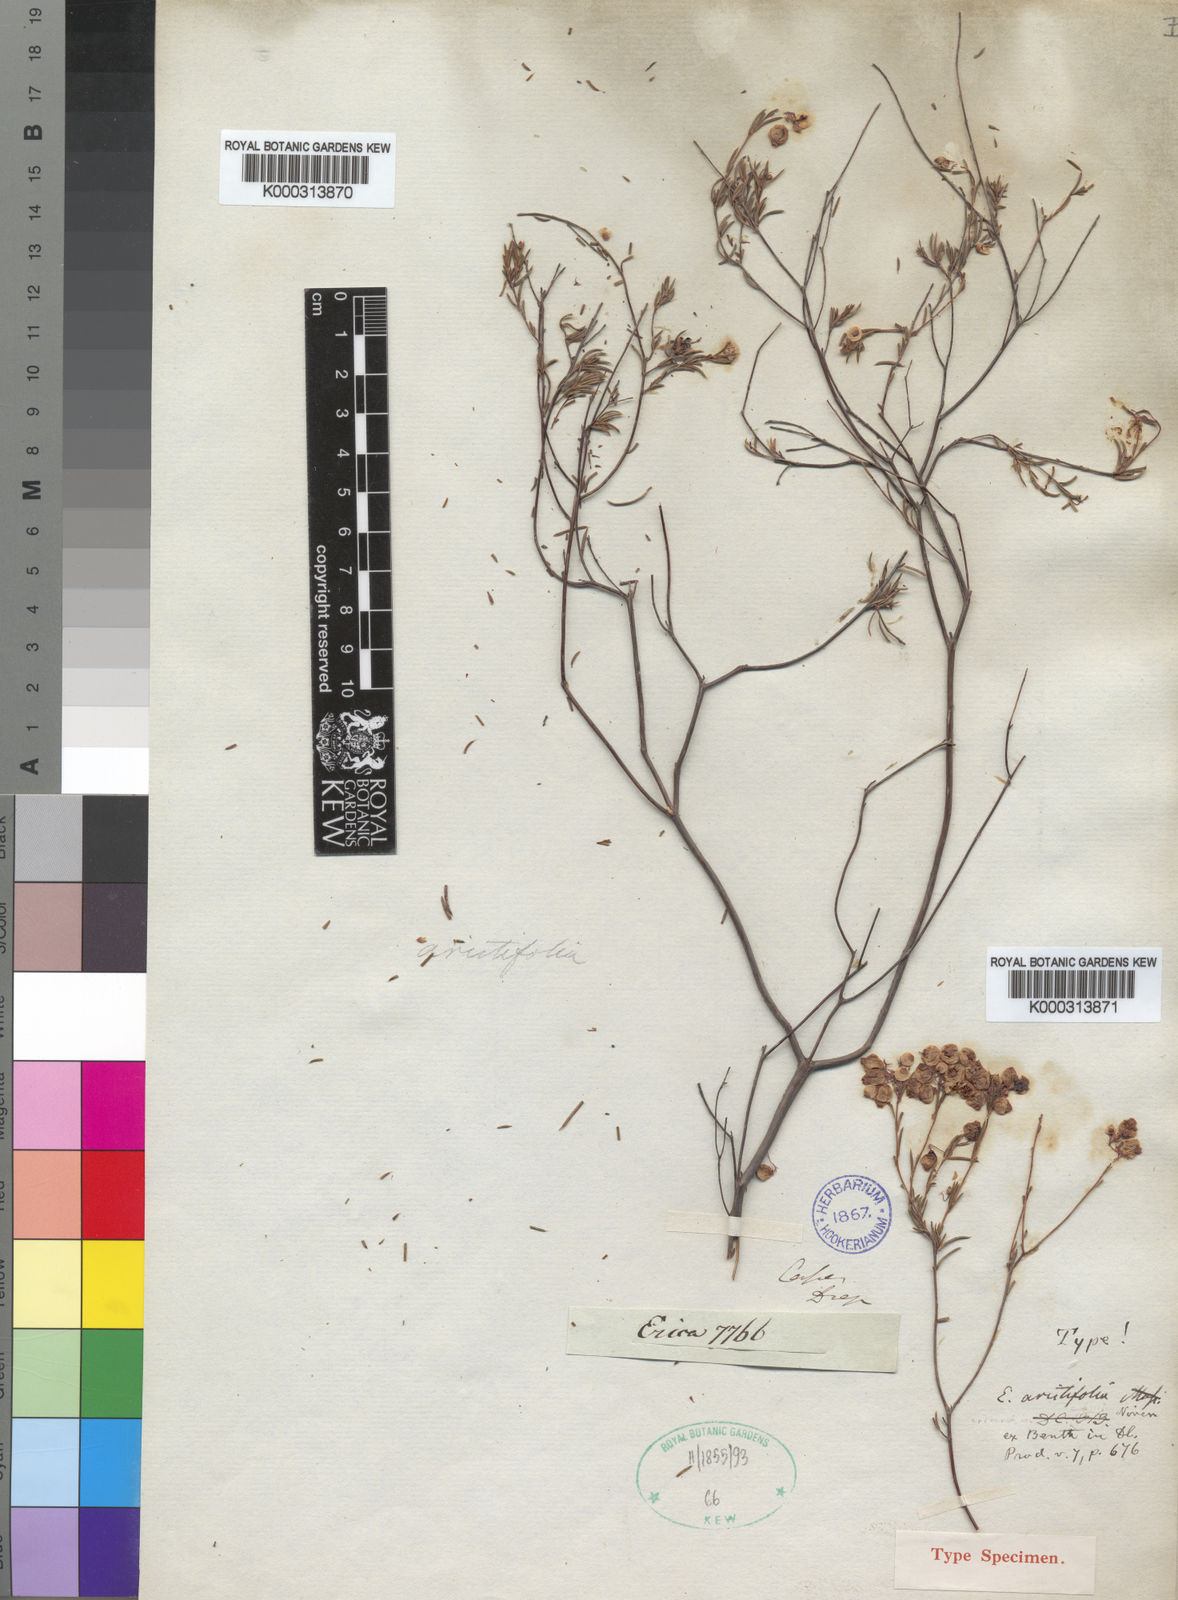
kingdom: Plantae
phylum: Tracheophyta
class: Magnoliopsida
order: Ericales
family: Ericaceae
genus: Erica
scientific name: Erica aristifolia
